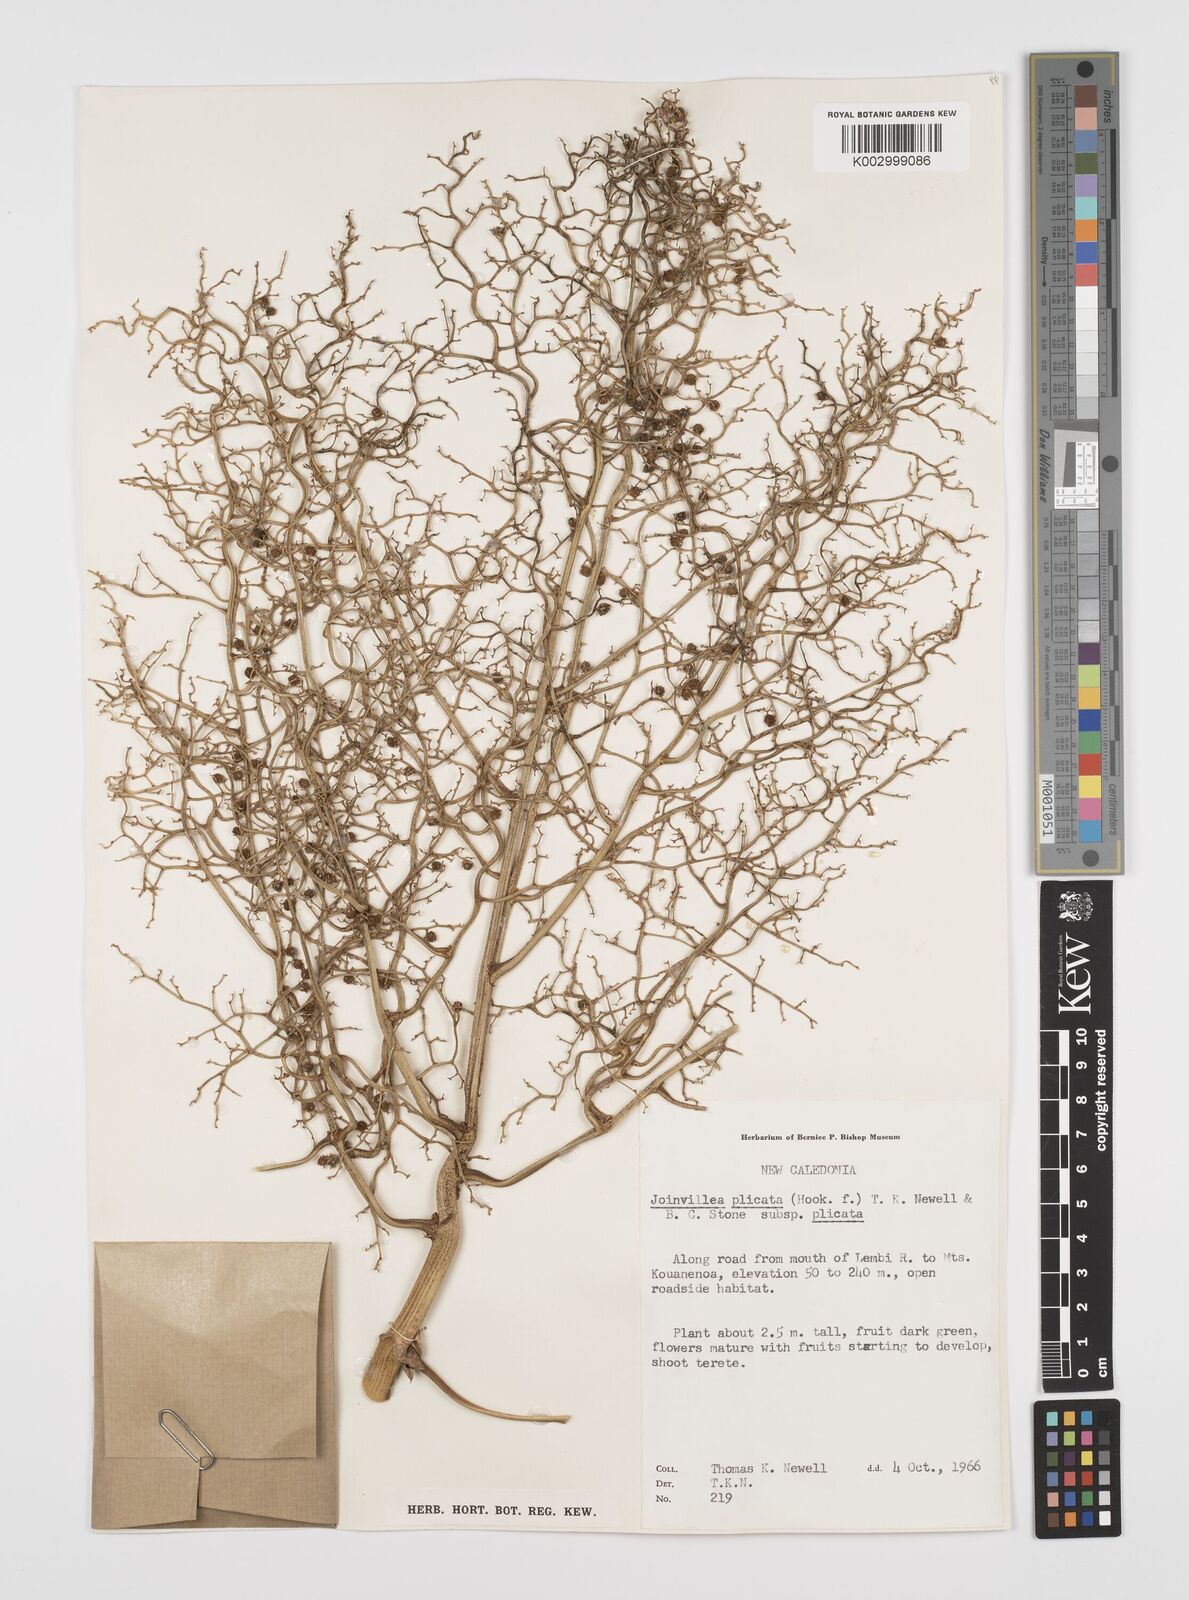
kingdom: Plantae
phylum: Tracheophyta
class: Liliopsida
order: Poales
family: Joinvilleaceae
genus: Joinvillea
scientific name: Joinvillea plicata
